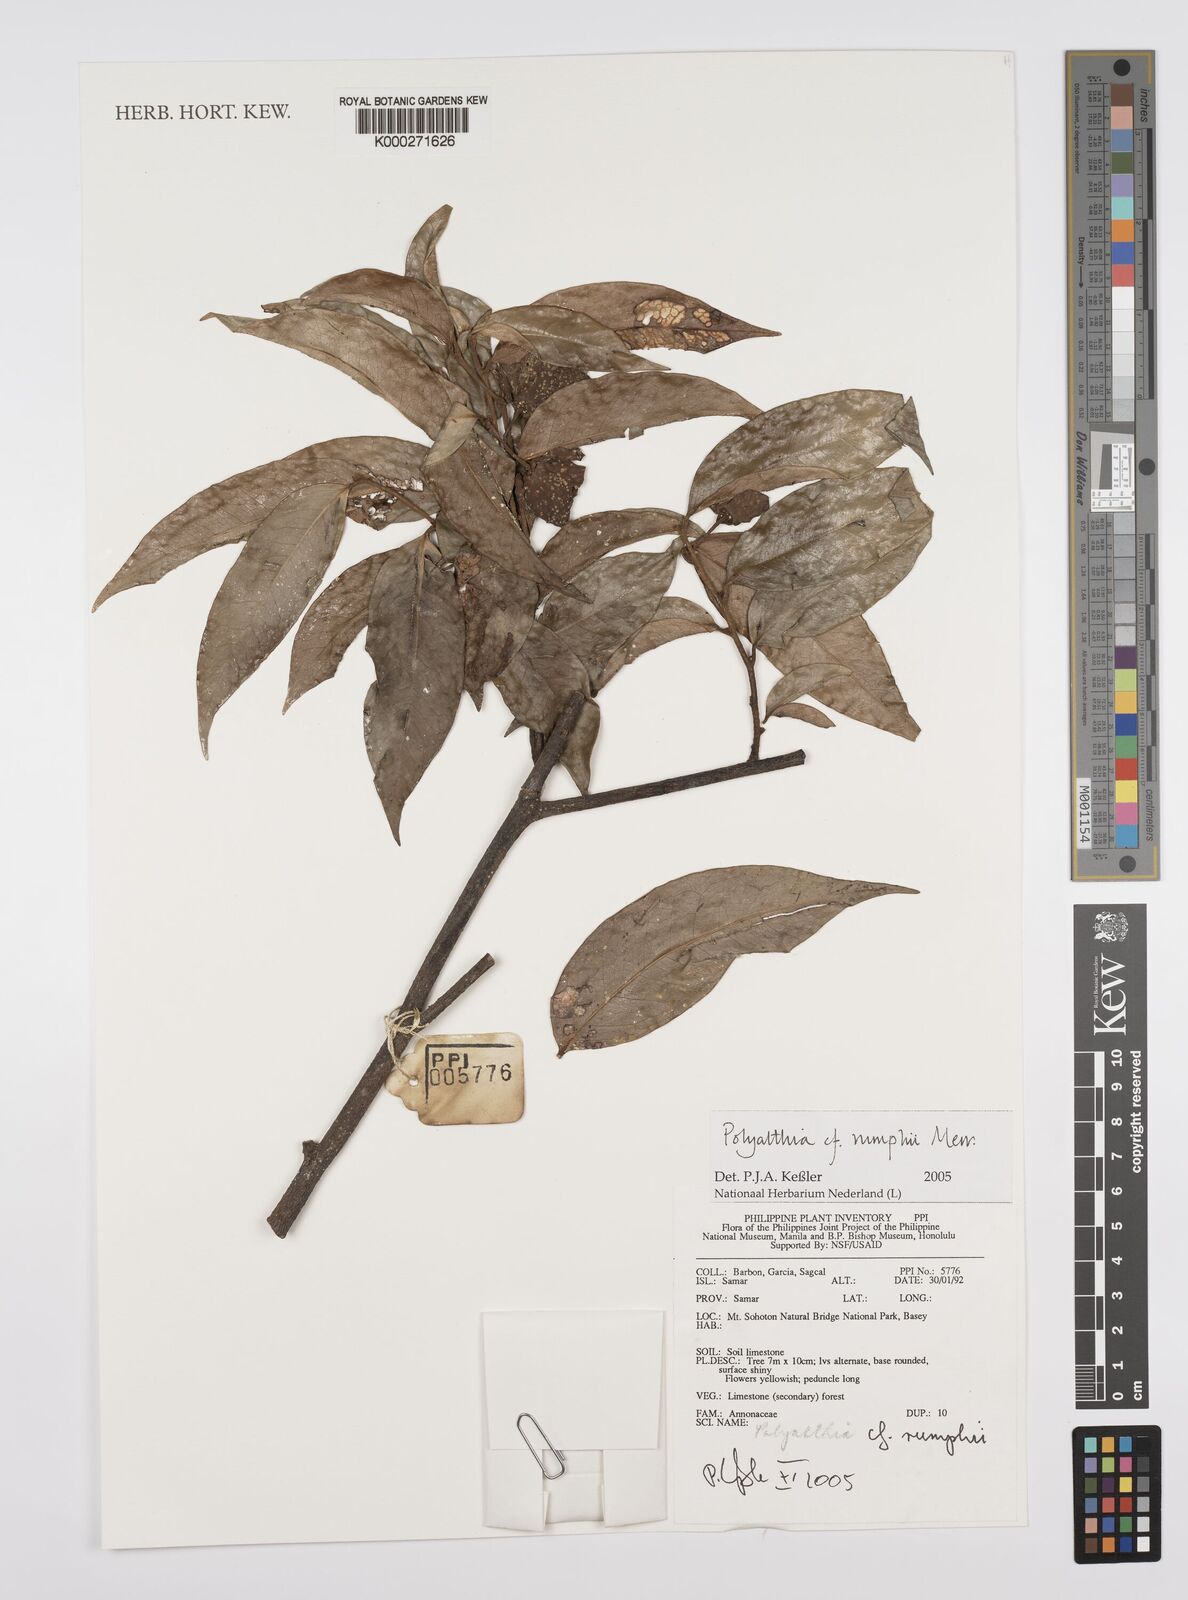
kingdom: Plantae
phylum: Tracheophyta
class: Magnoliopsida
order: Magnoliales
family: Annonaceae
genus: Hubera
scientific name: Hubera rumphii
